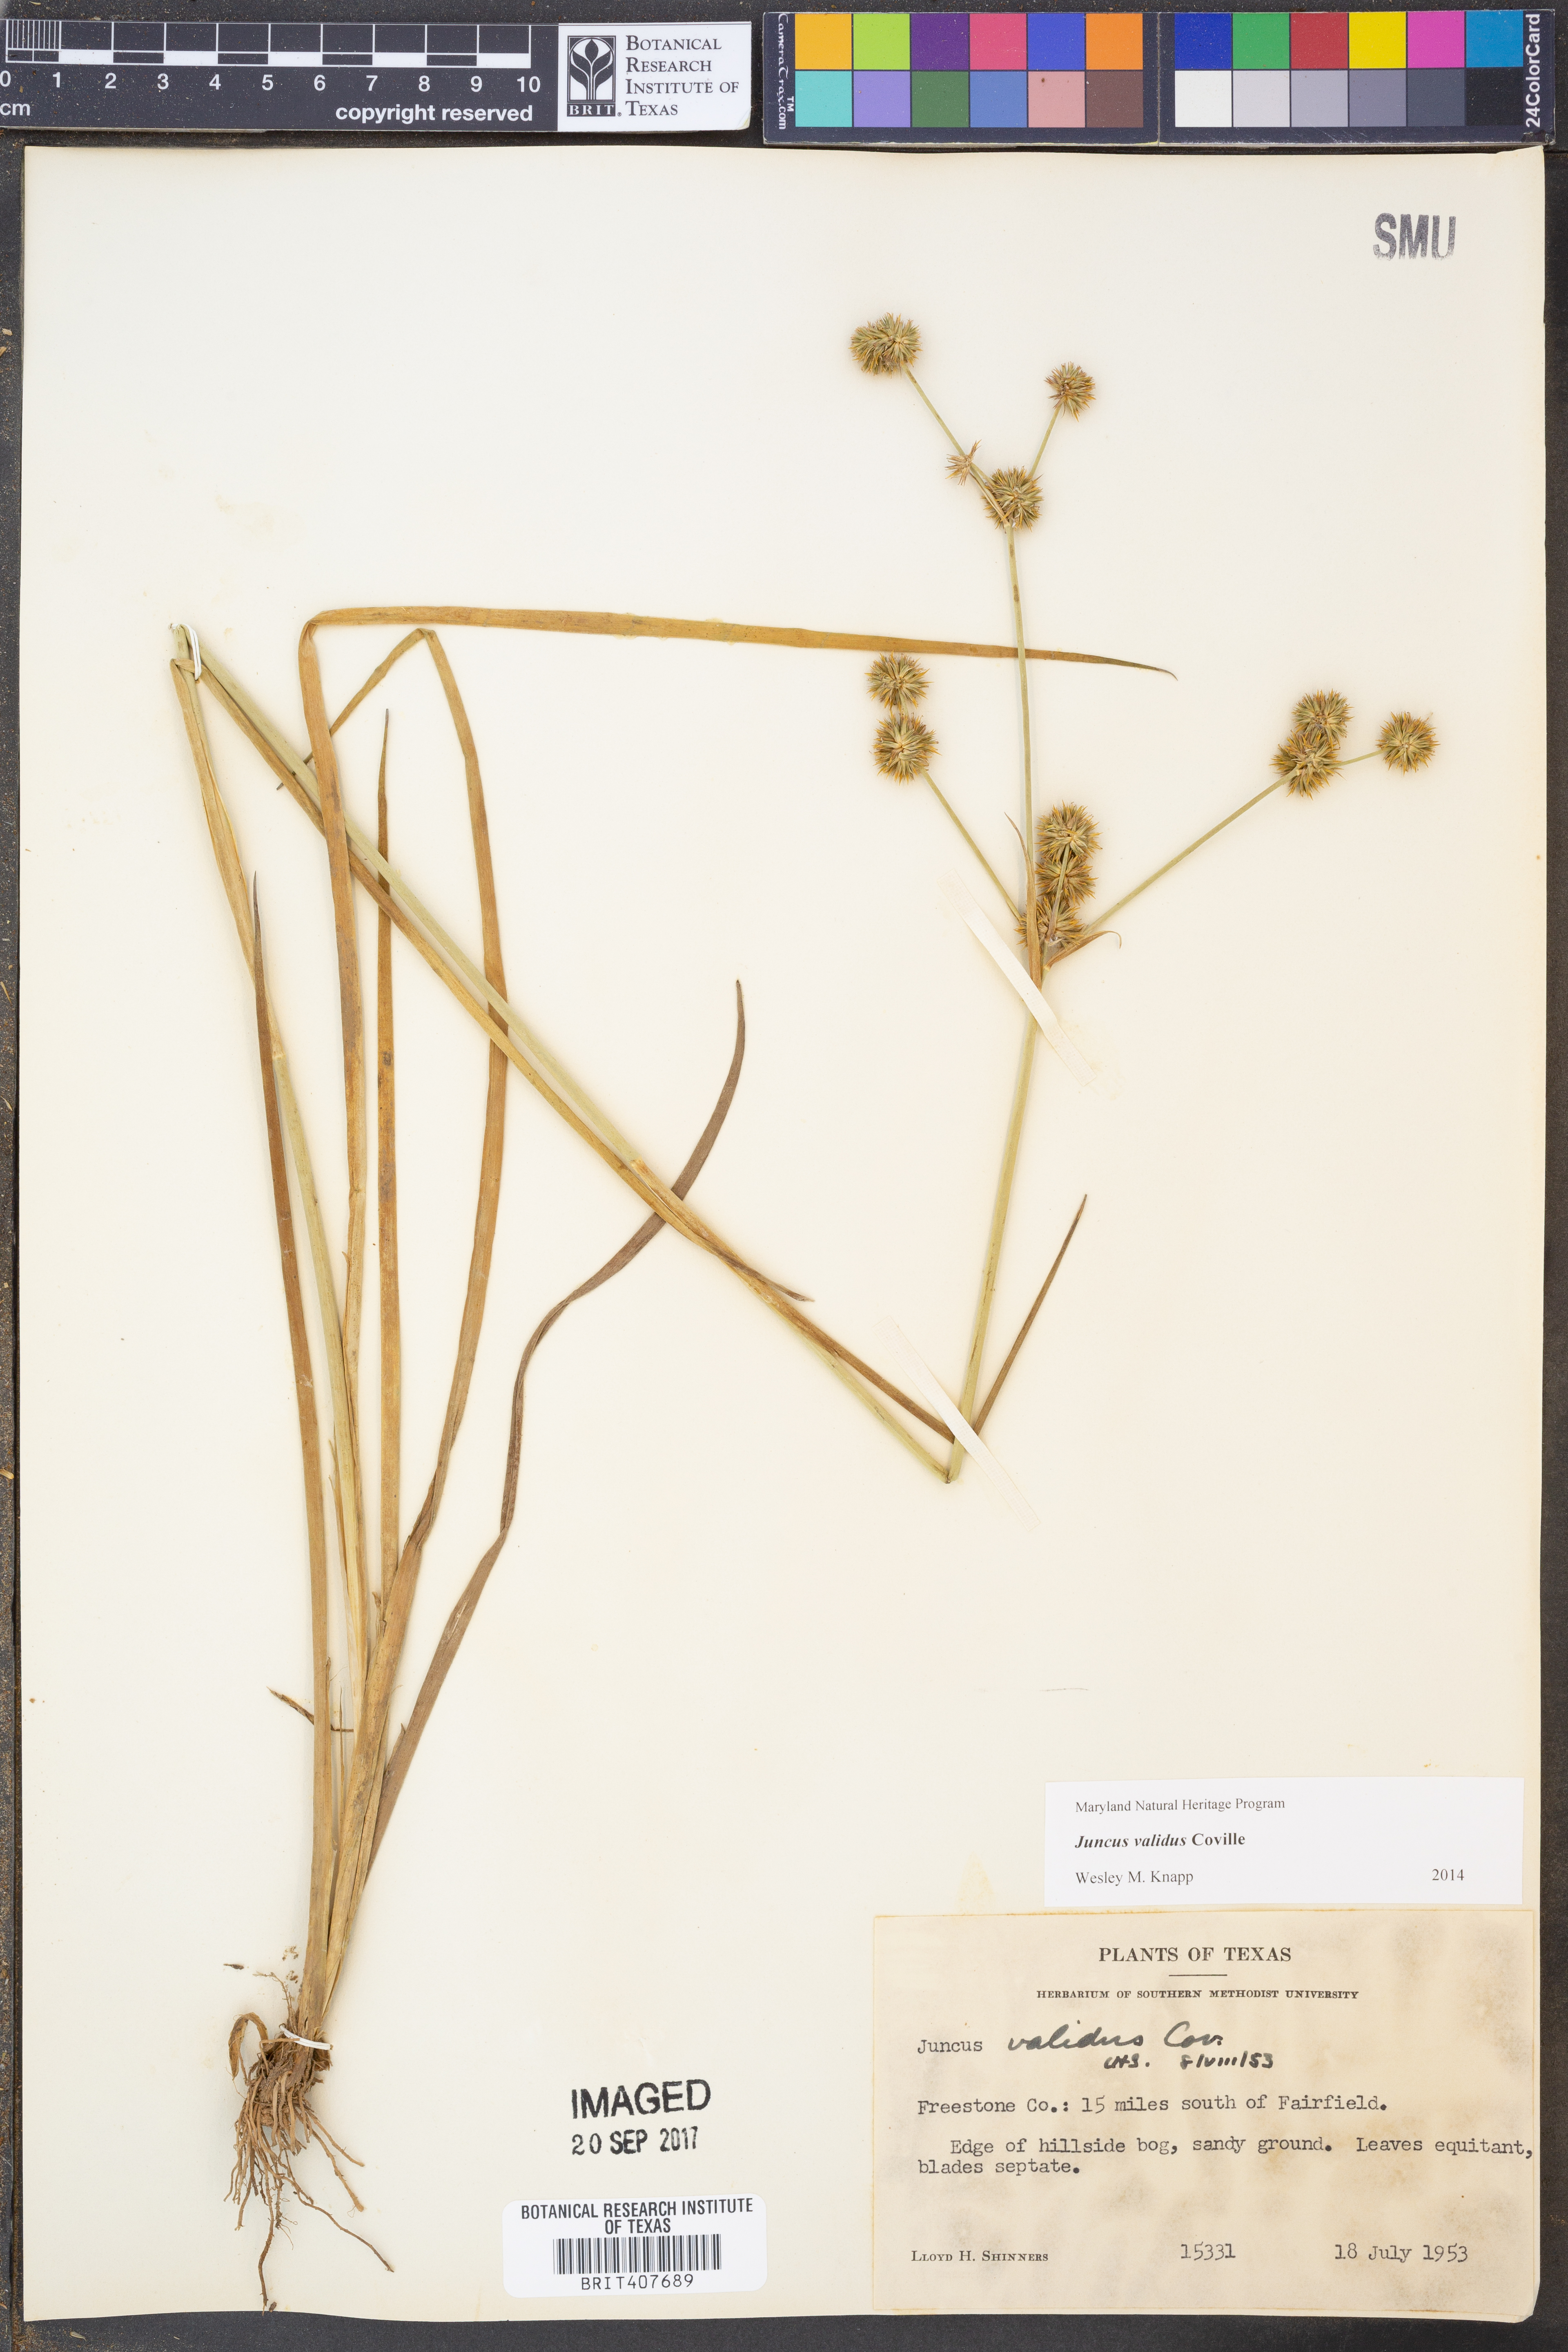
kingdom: Plantae
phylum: Tracheophyta
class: Liliopsida
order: Poales
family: Juncaceae
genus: Juncus
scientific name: Juncus validus
